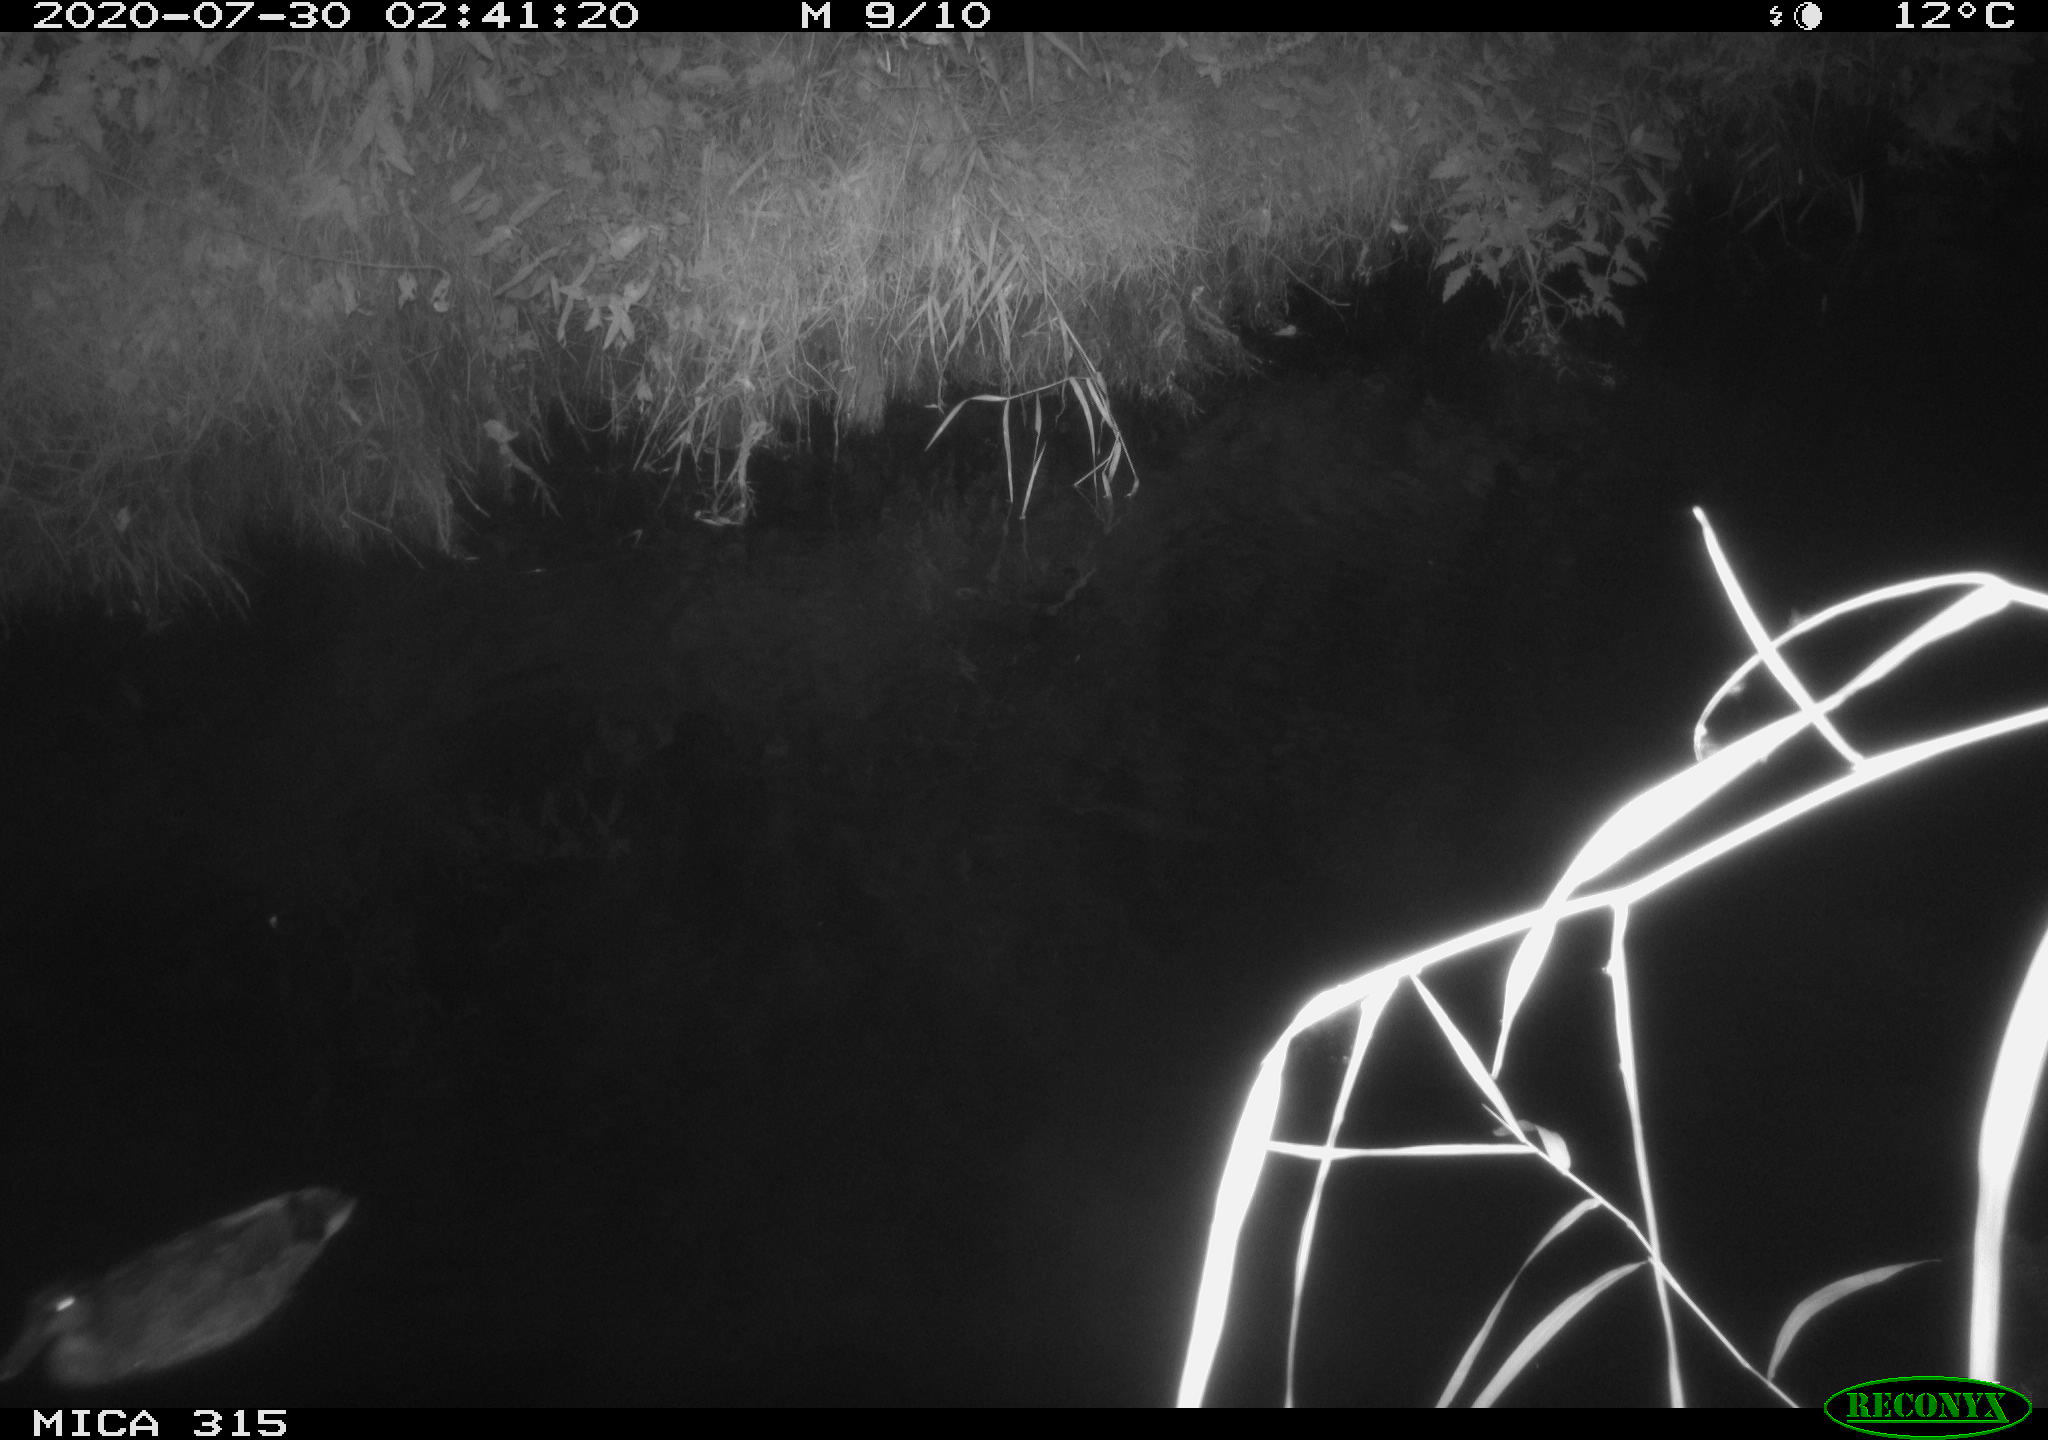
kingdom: Animalia
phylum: Chordata
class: Aves
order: Anseriformes
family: Anatidae
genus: Anas
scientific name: Anas platyrhynchos
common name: Mallard
